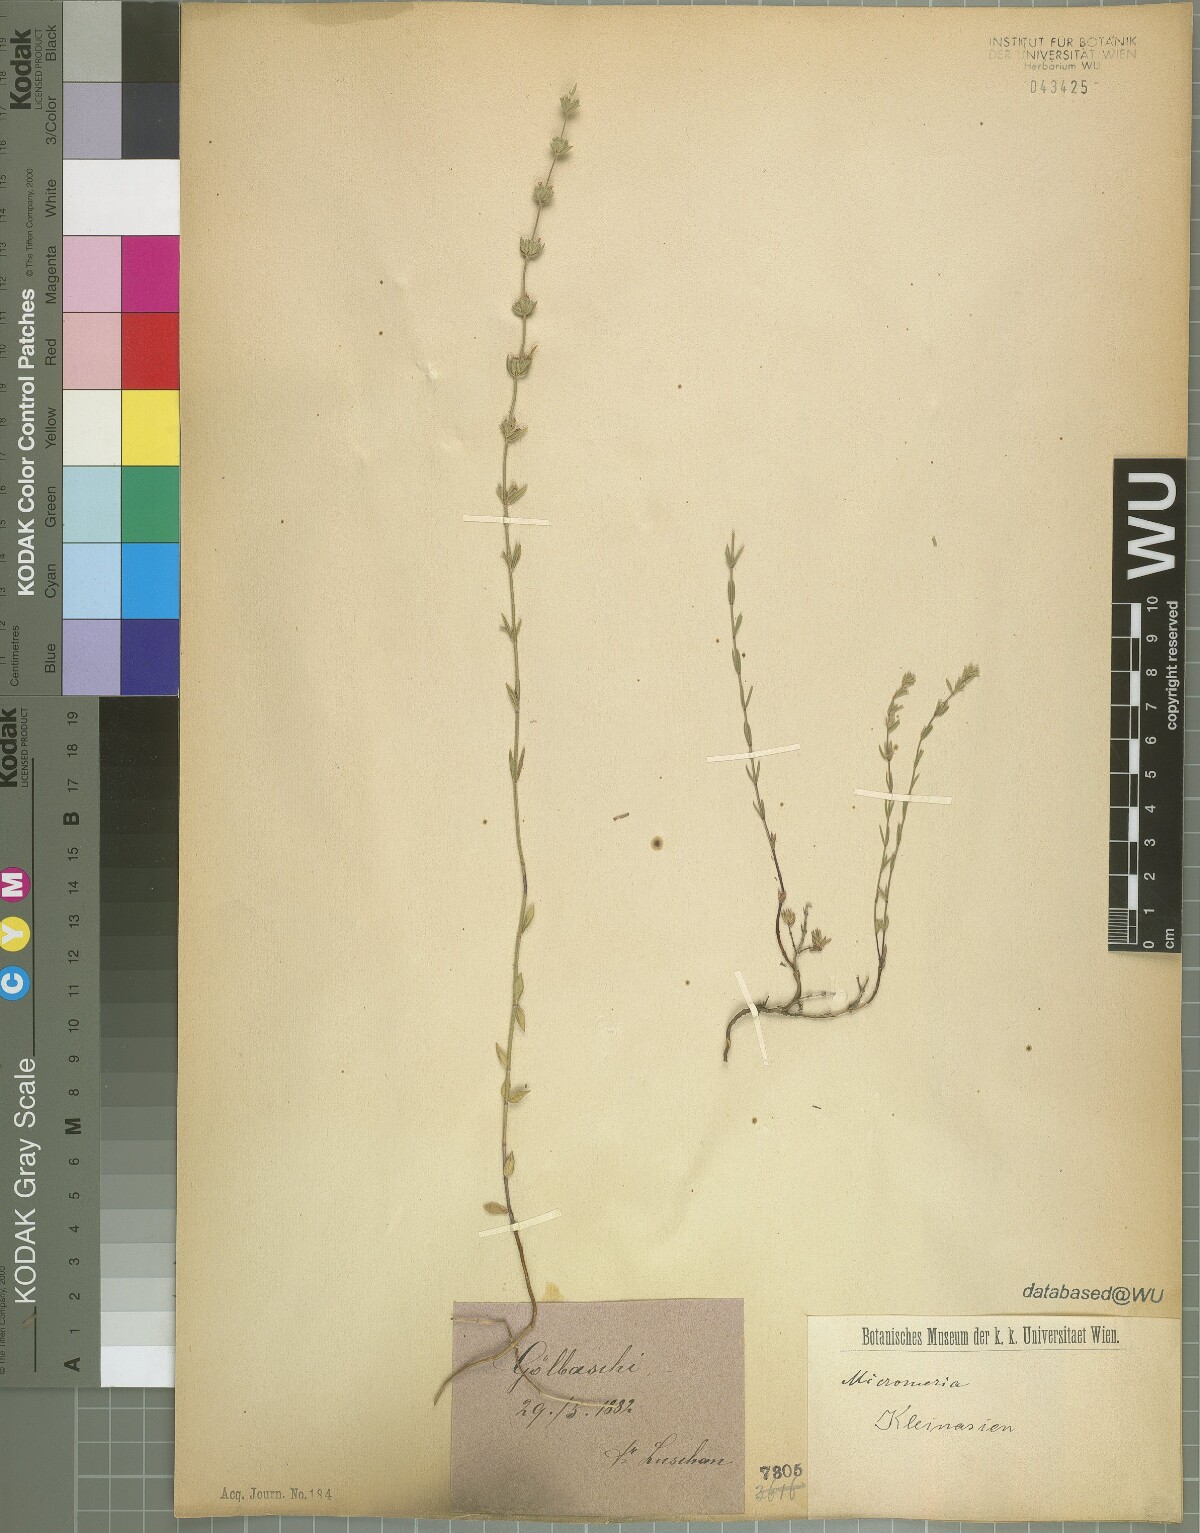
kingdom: Plantae
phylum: Tracheophyta
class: Magnoliopsida
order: Lamiales
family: Lamiaceae
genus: Micromeria
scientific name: Micromeria myrtifolia
